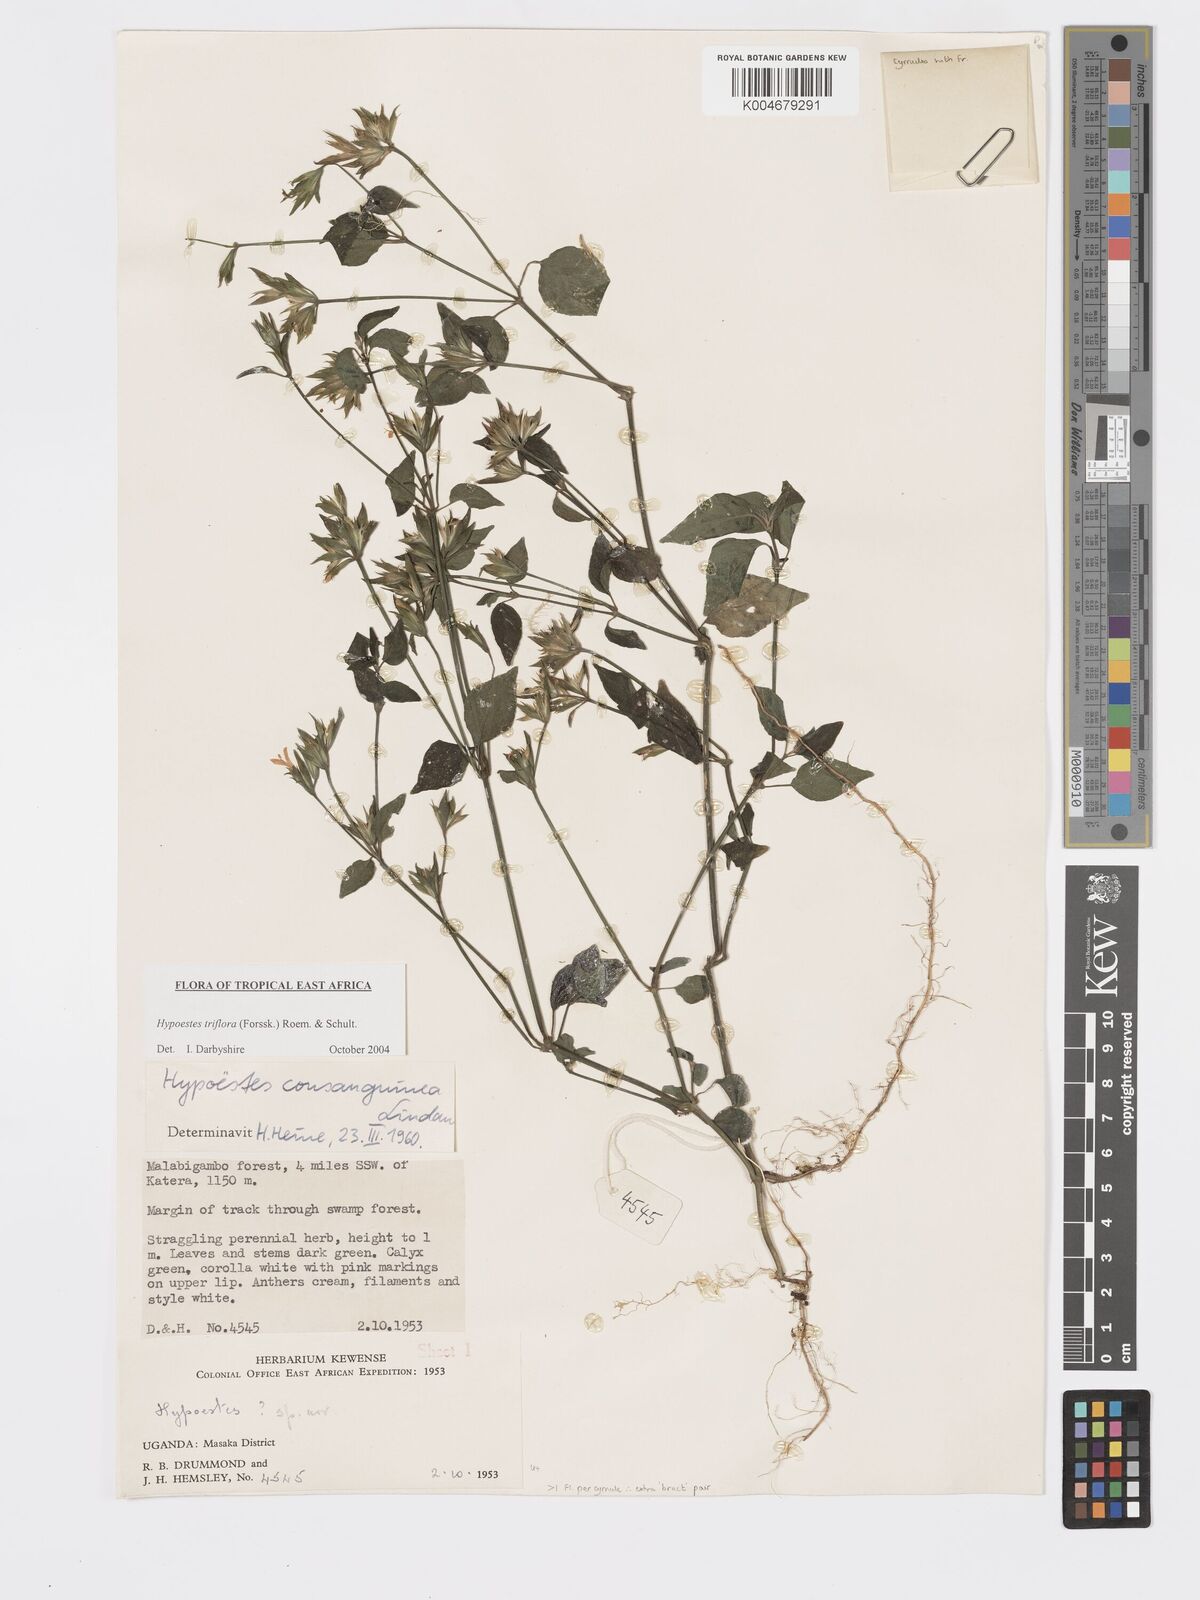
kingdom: Plantae
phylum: Tracheophyta
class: Magnoliopsida
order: Lamiales
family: Acanthaceae
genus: Hypoestes
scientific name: Hypoestes triflora
